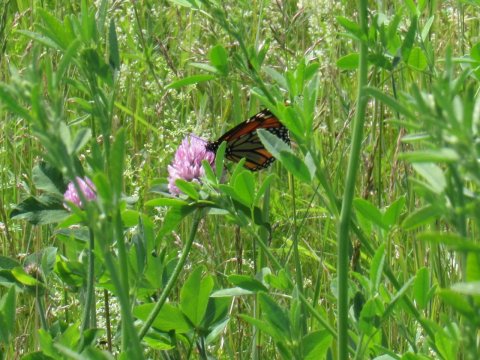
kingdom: Animalia
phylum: Arthropoda
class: Insecta
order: Lepidoptera
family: Nymphalidae
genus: Danaus
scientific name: Danaus plexippus
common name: Monarch
